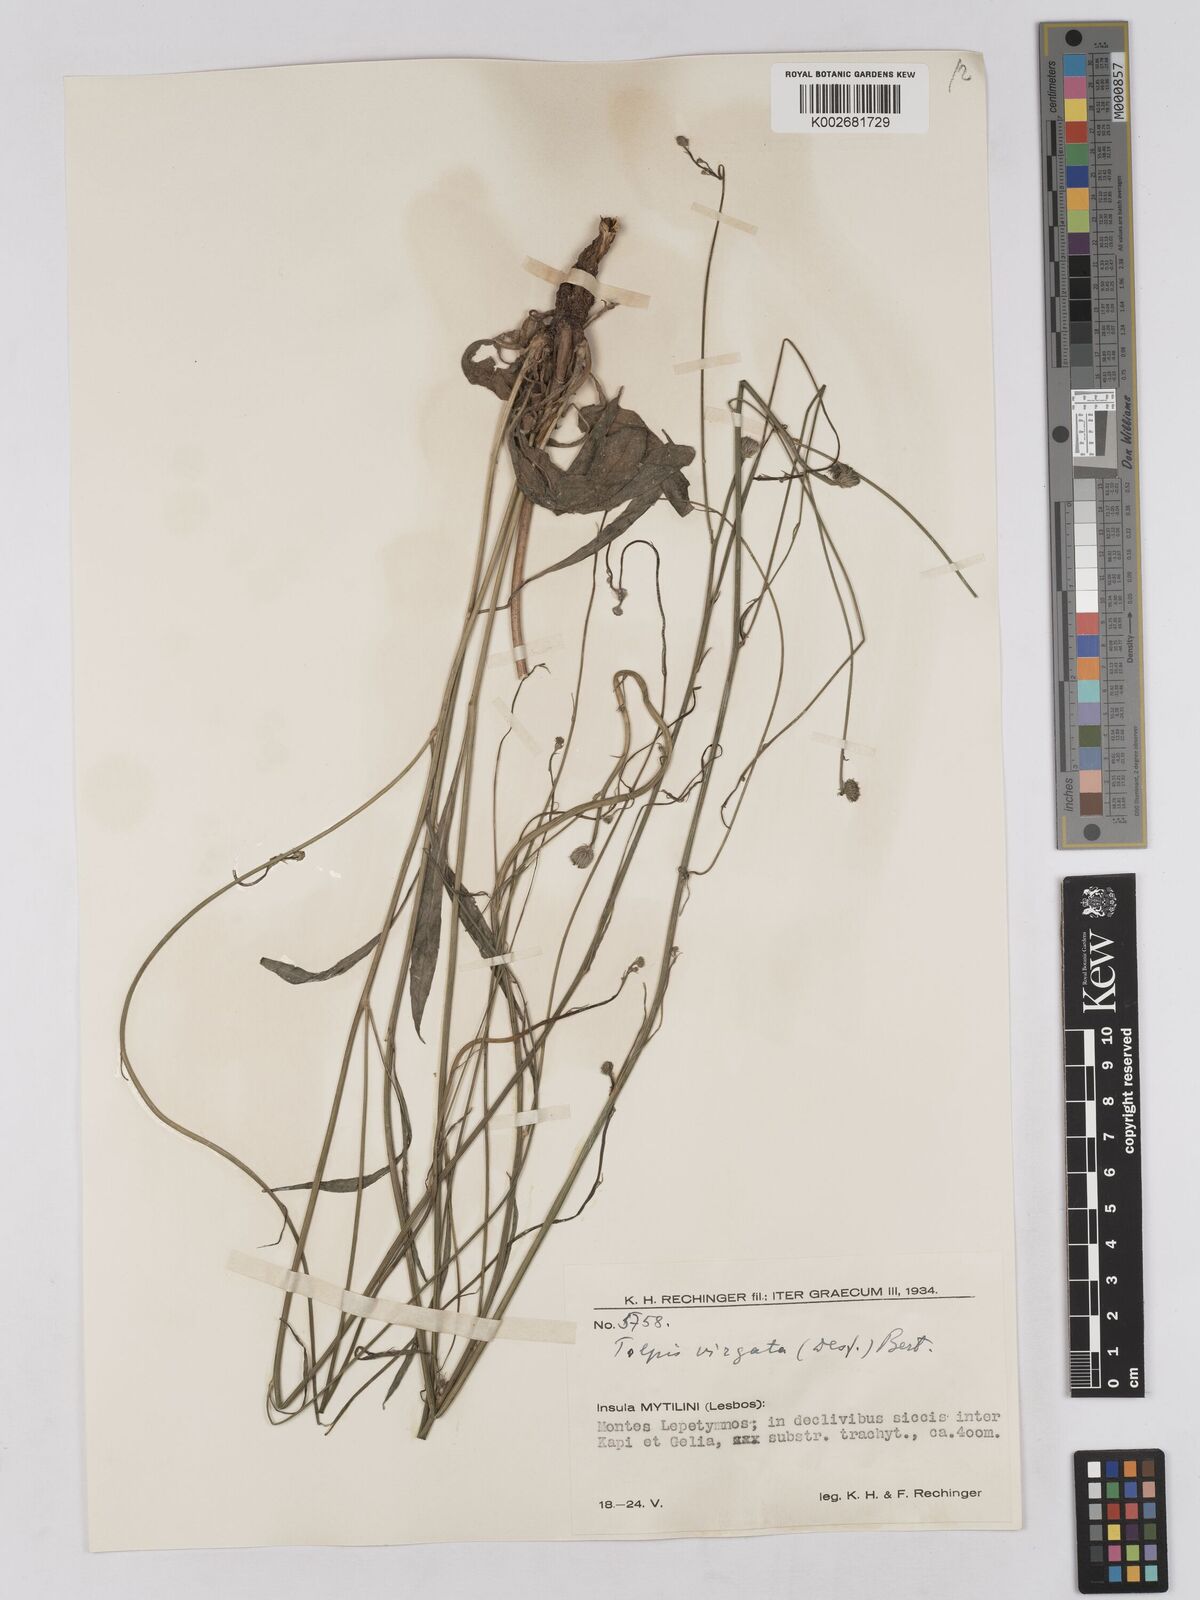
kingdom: Plantae
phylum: Tracheophyta
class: Magnoliopsida
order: Asterales
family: Asteraceae
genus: Tolpis
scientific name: Tolpis virgata
